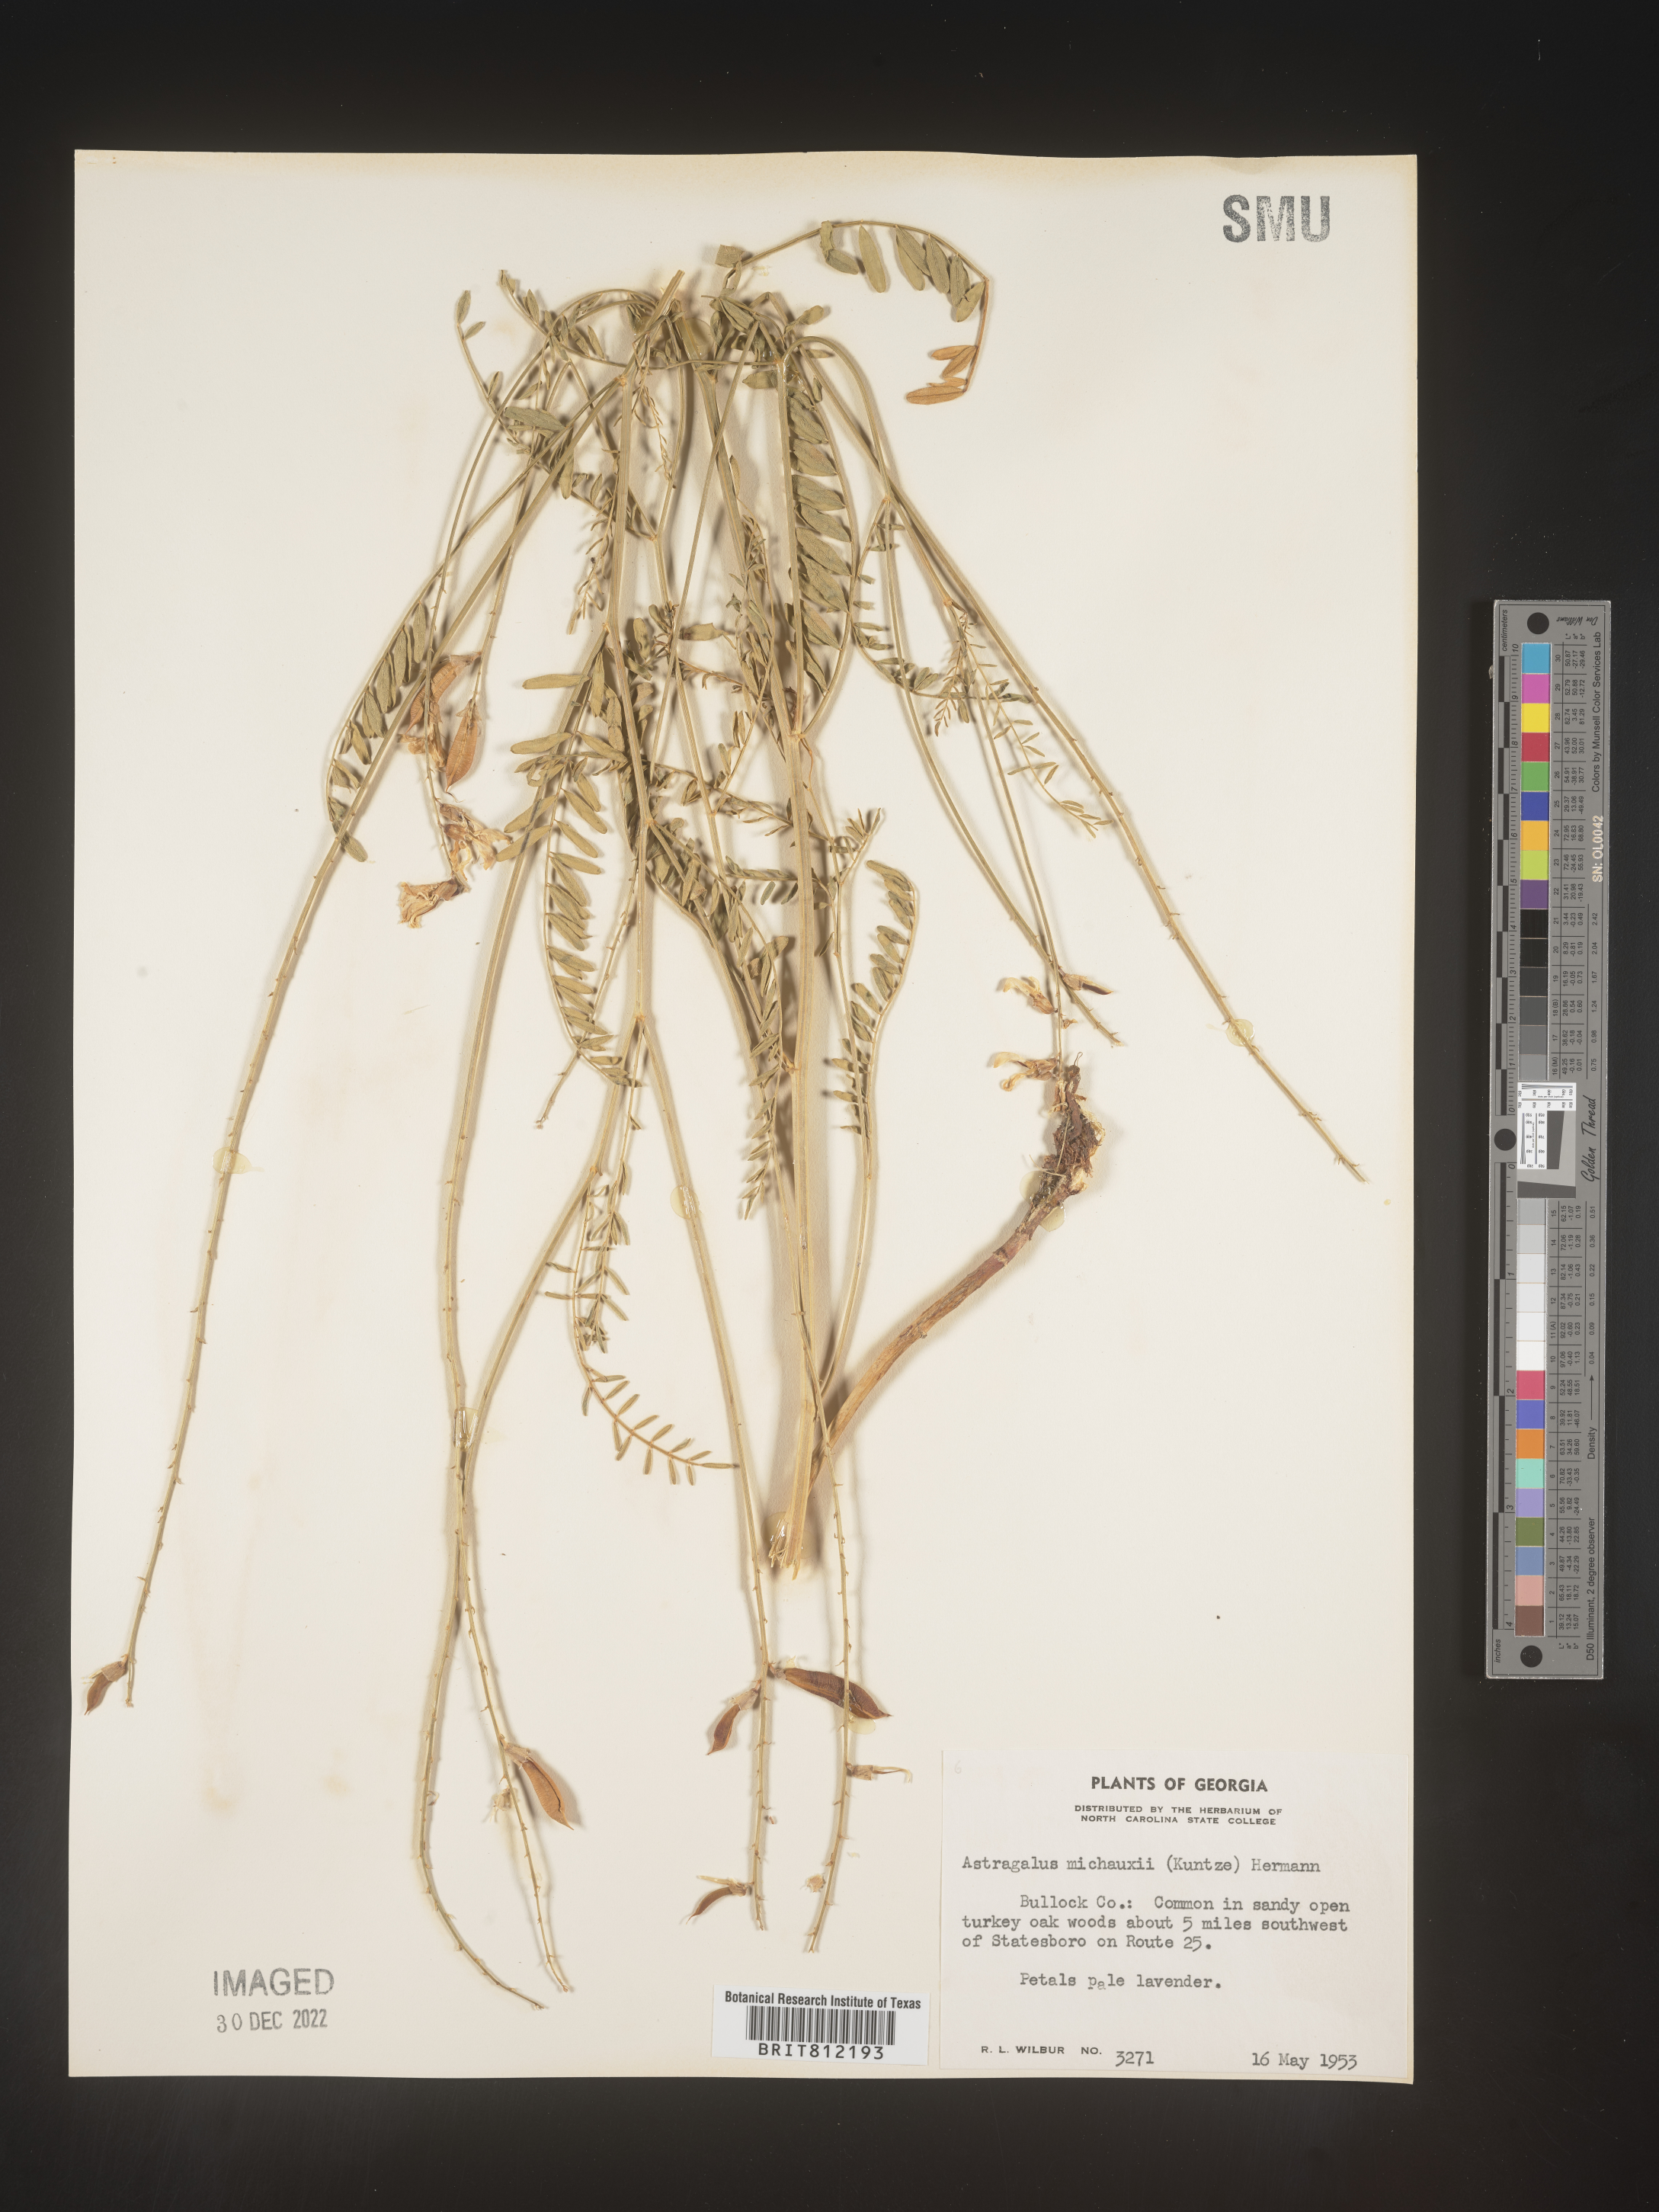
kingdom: Plantae
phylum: Tracheophyta
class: Magnoliopsida
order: Fabales
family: Fabaceae
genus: Astragalus
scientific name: Astragalus michauxii
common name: Michaux milk-vetch
